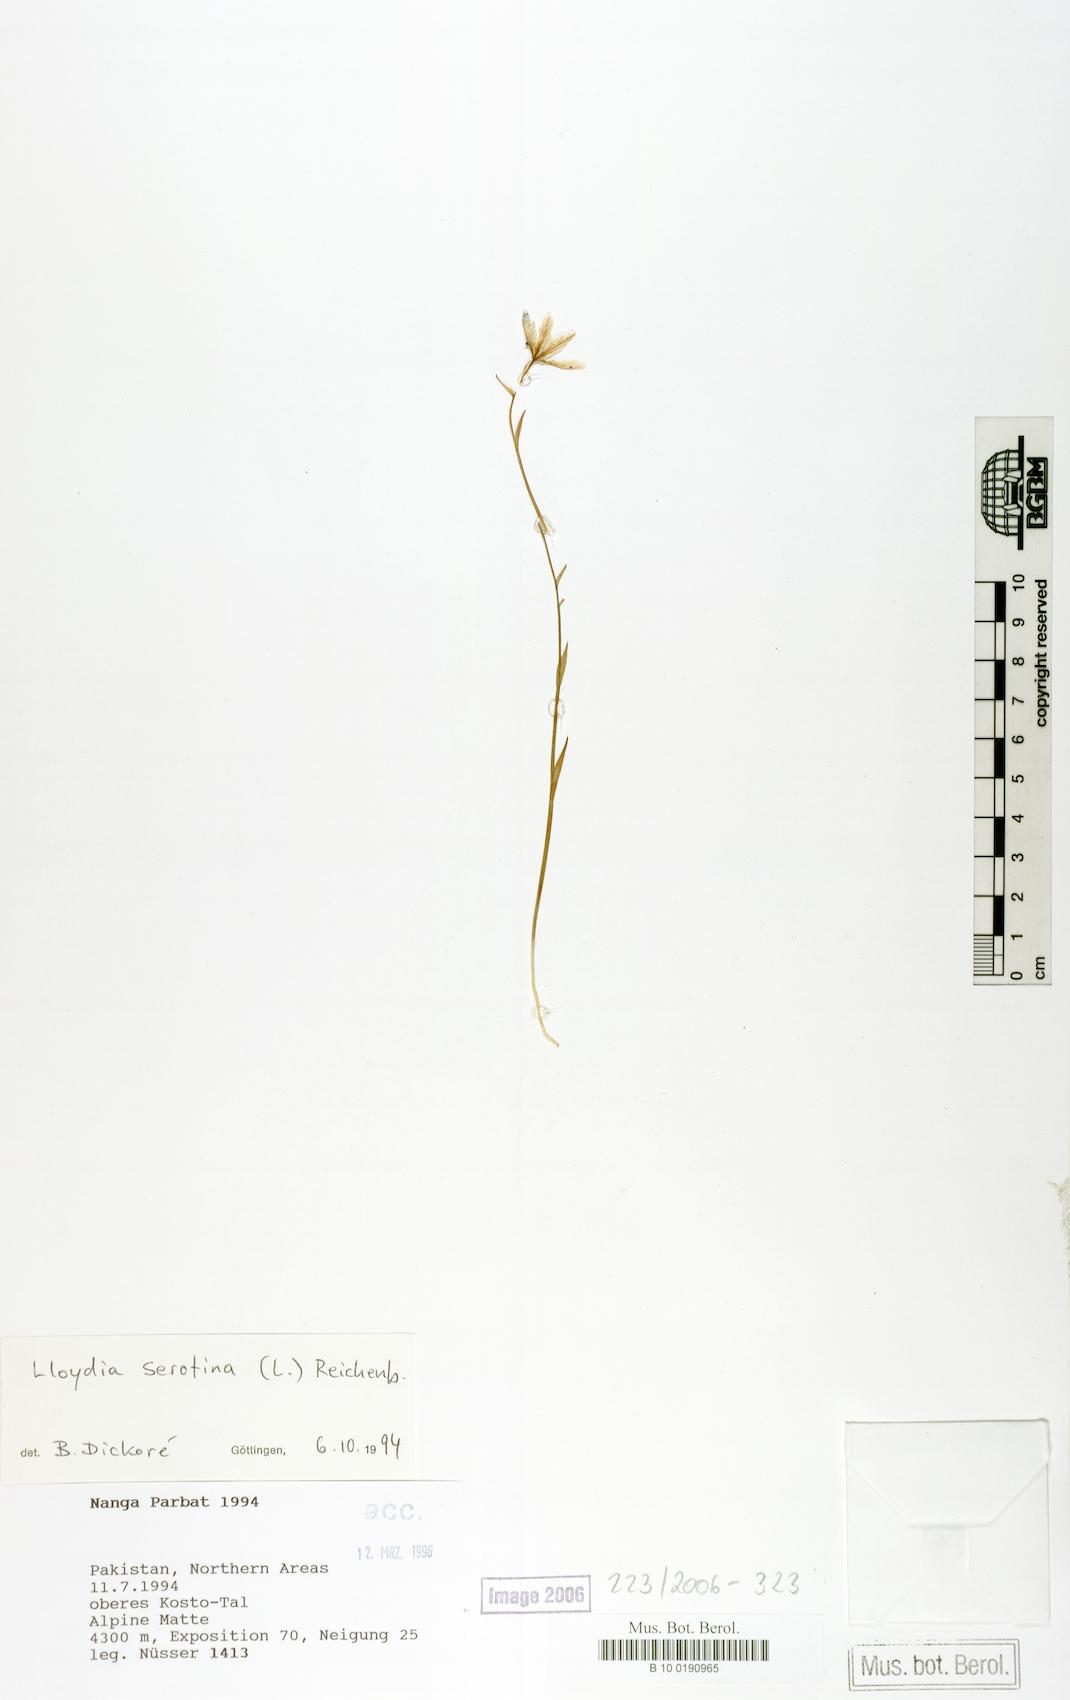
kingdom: Plantae
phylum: Tracheophyta
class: Liliopsida
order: Liliales
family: Liliaceae
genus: Gagea
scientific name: Gagea serotina
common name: Snowdon lily
